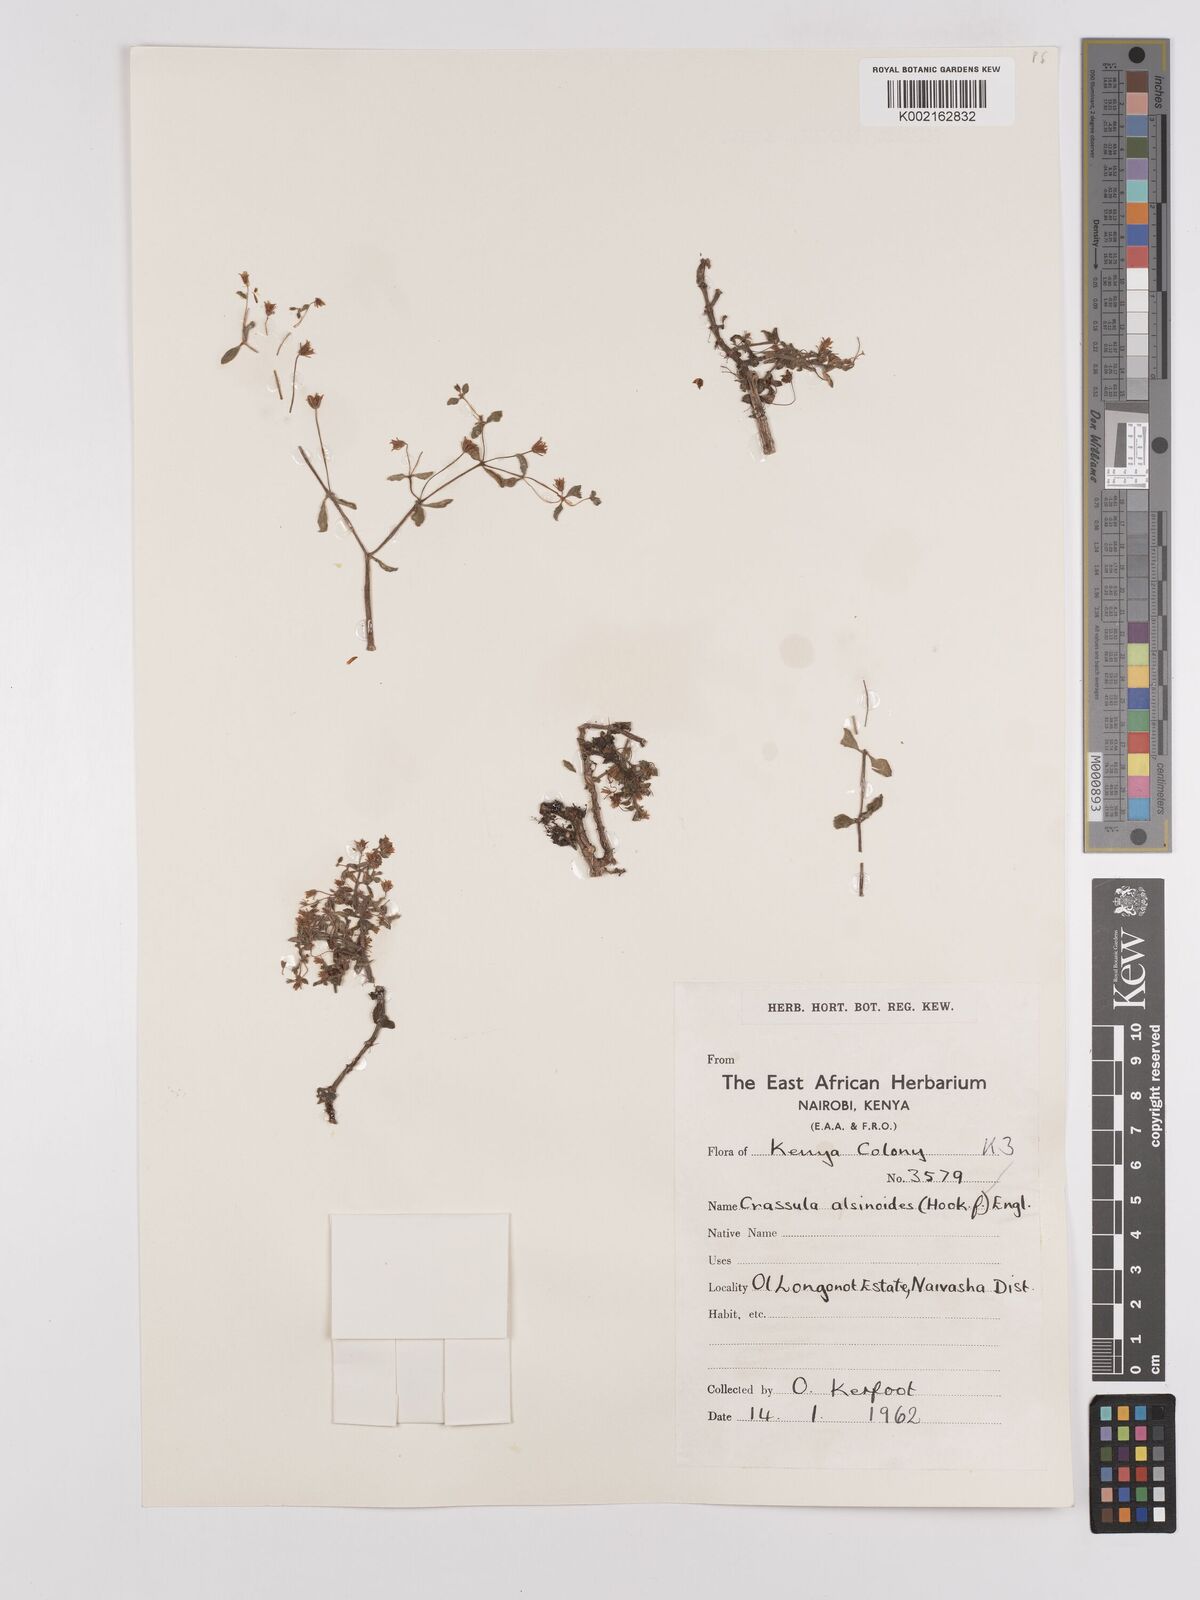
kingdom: Plantae
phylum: Tracheophyta
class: Magnoliopsida
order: Saxifragales
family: Crassulaceae
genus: Crassula
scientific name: Crassula volkensii
